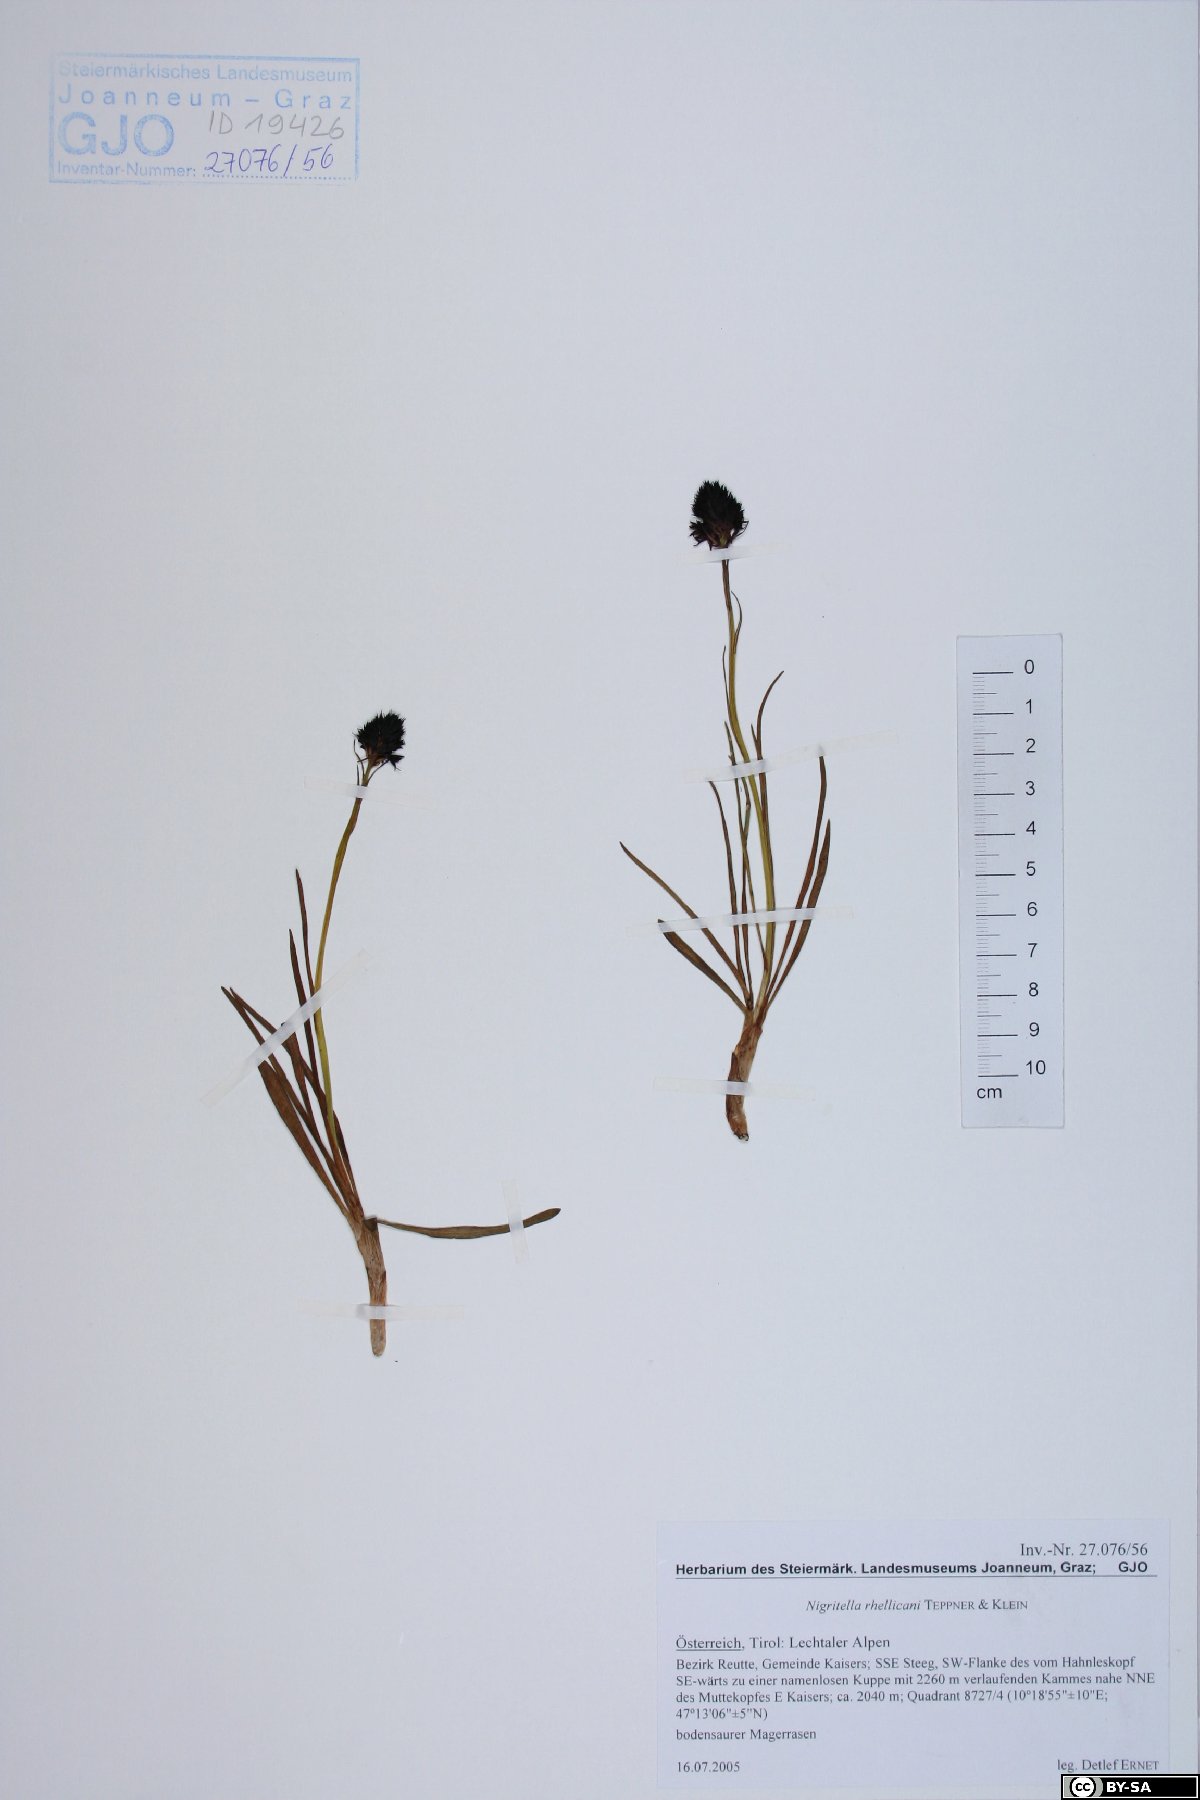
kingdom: Plantae
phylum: Tracheophyta
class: Liliopsida
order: Asparagales
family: Orchidaceae
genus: Gymnadenia
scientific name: Gymnadenia rhellicani
